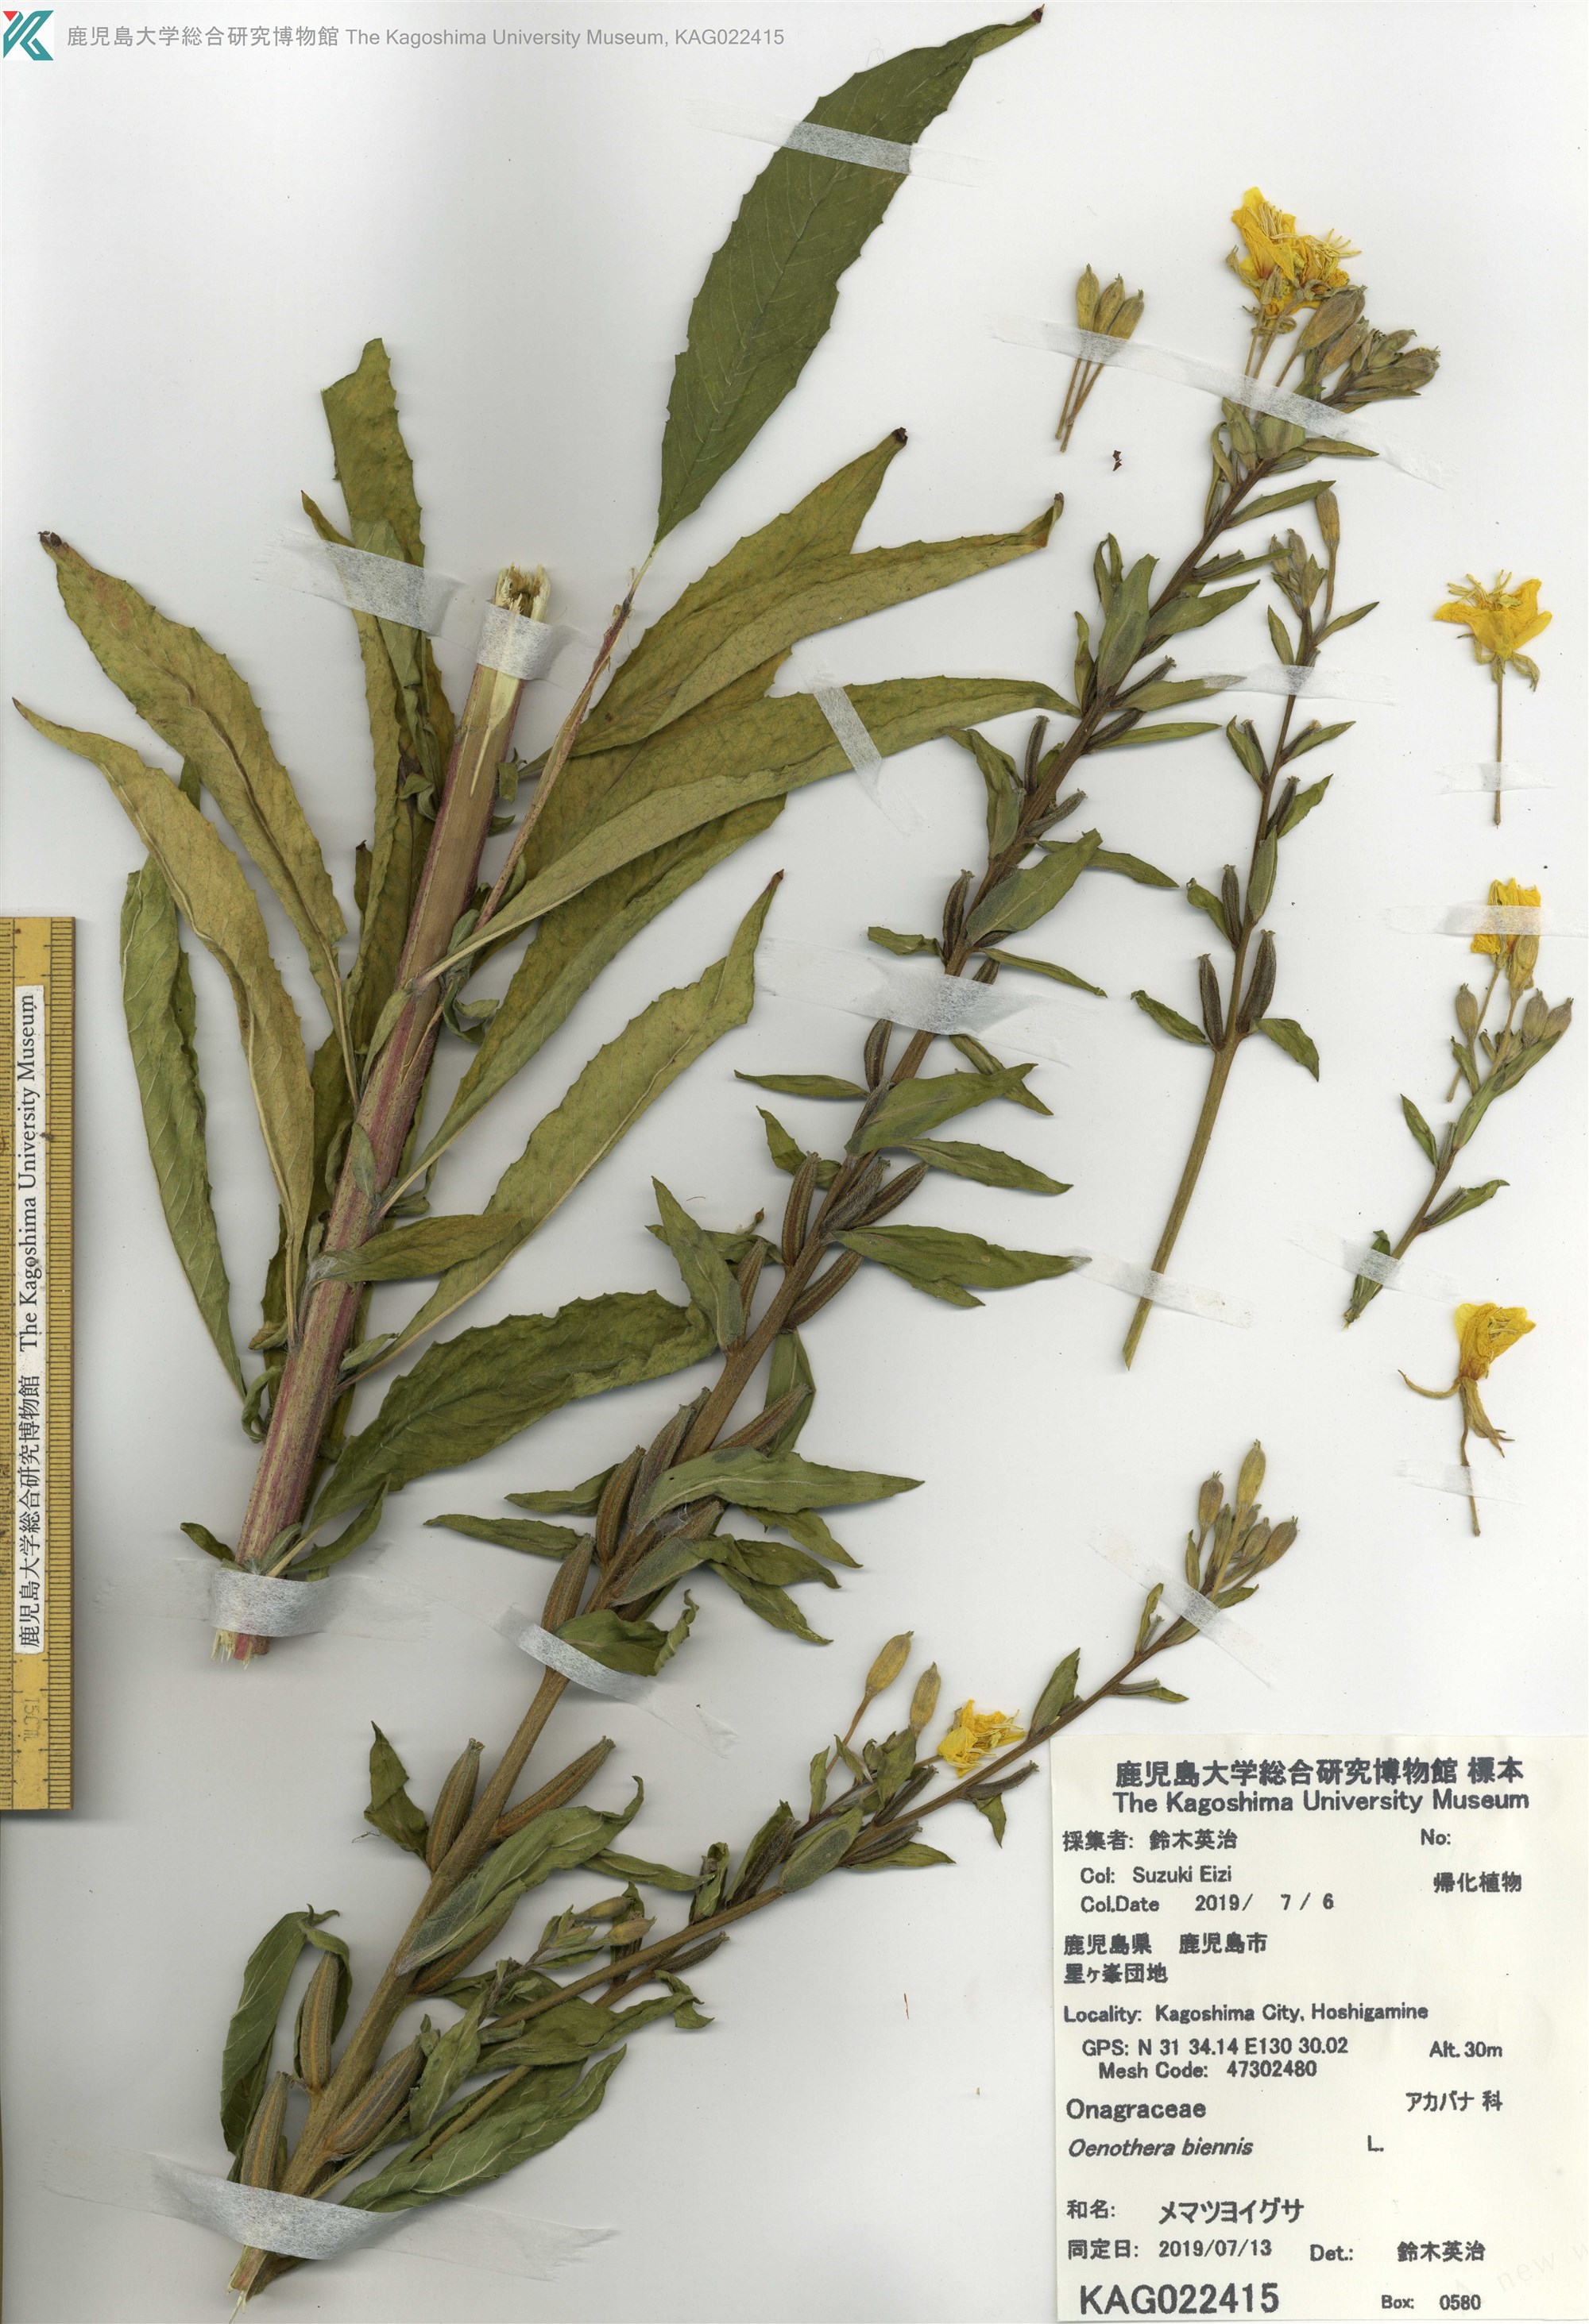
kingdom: Plantae
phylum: Tracheophyta
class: Magnoliopsida
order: Myrtales
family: Onagraceae
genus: Oenothera
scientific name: Oenothera biennis
